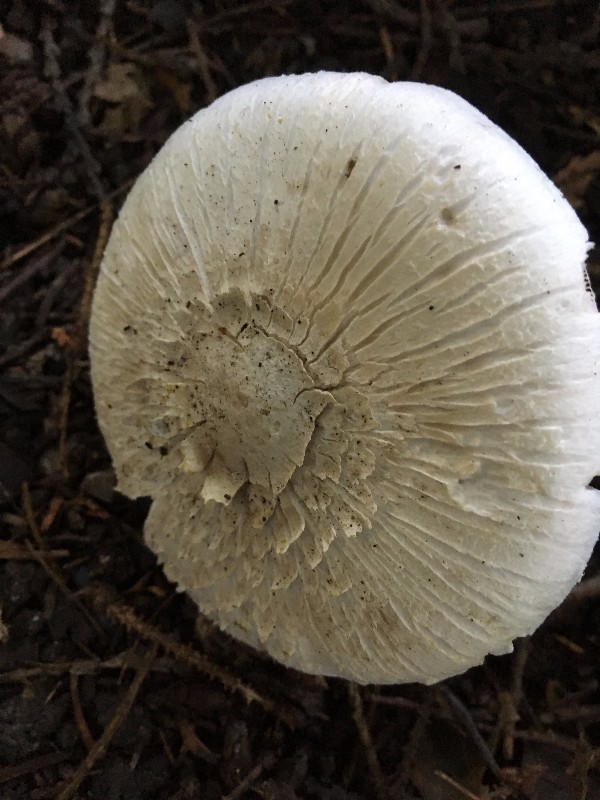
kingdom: Fungi
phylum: Basidiomycota
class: Agaricomycetes
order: Agaricales
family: Agaricaceae
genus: Agaricus
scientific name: Agaricus xanthodermus
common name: karbol-champignon
